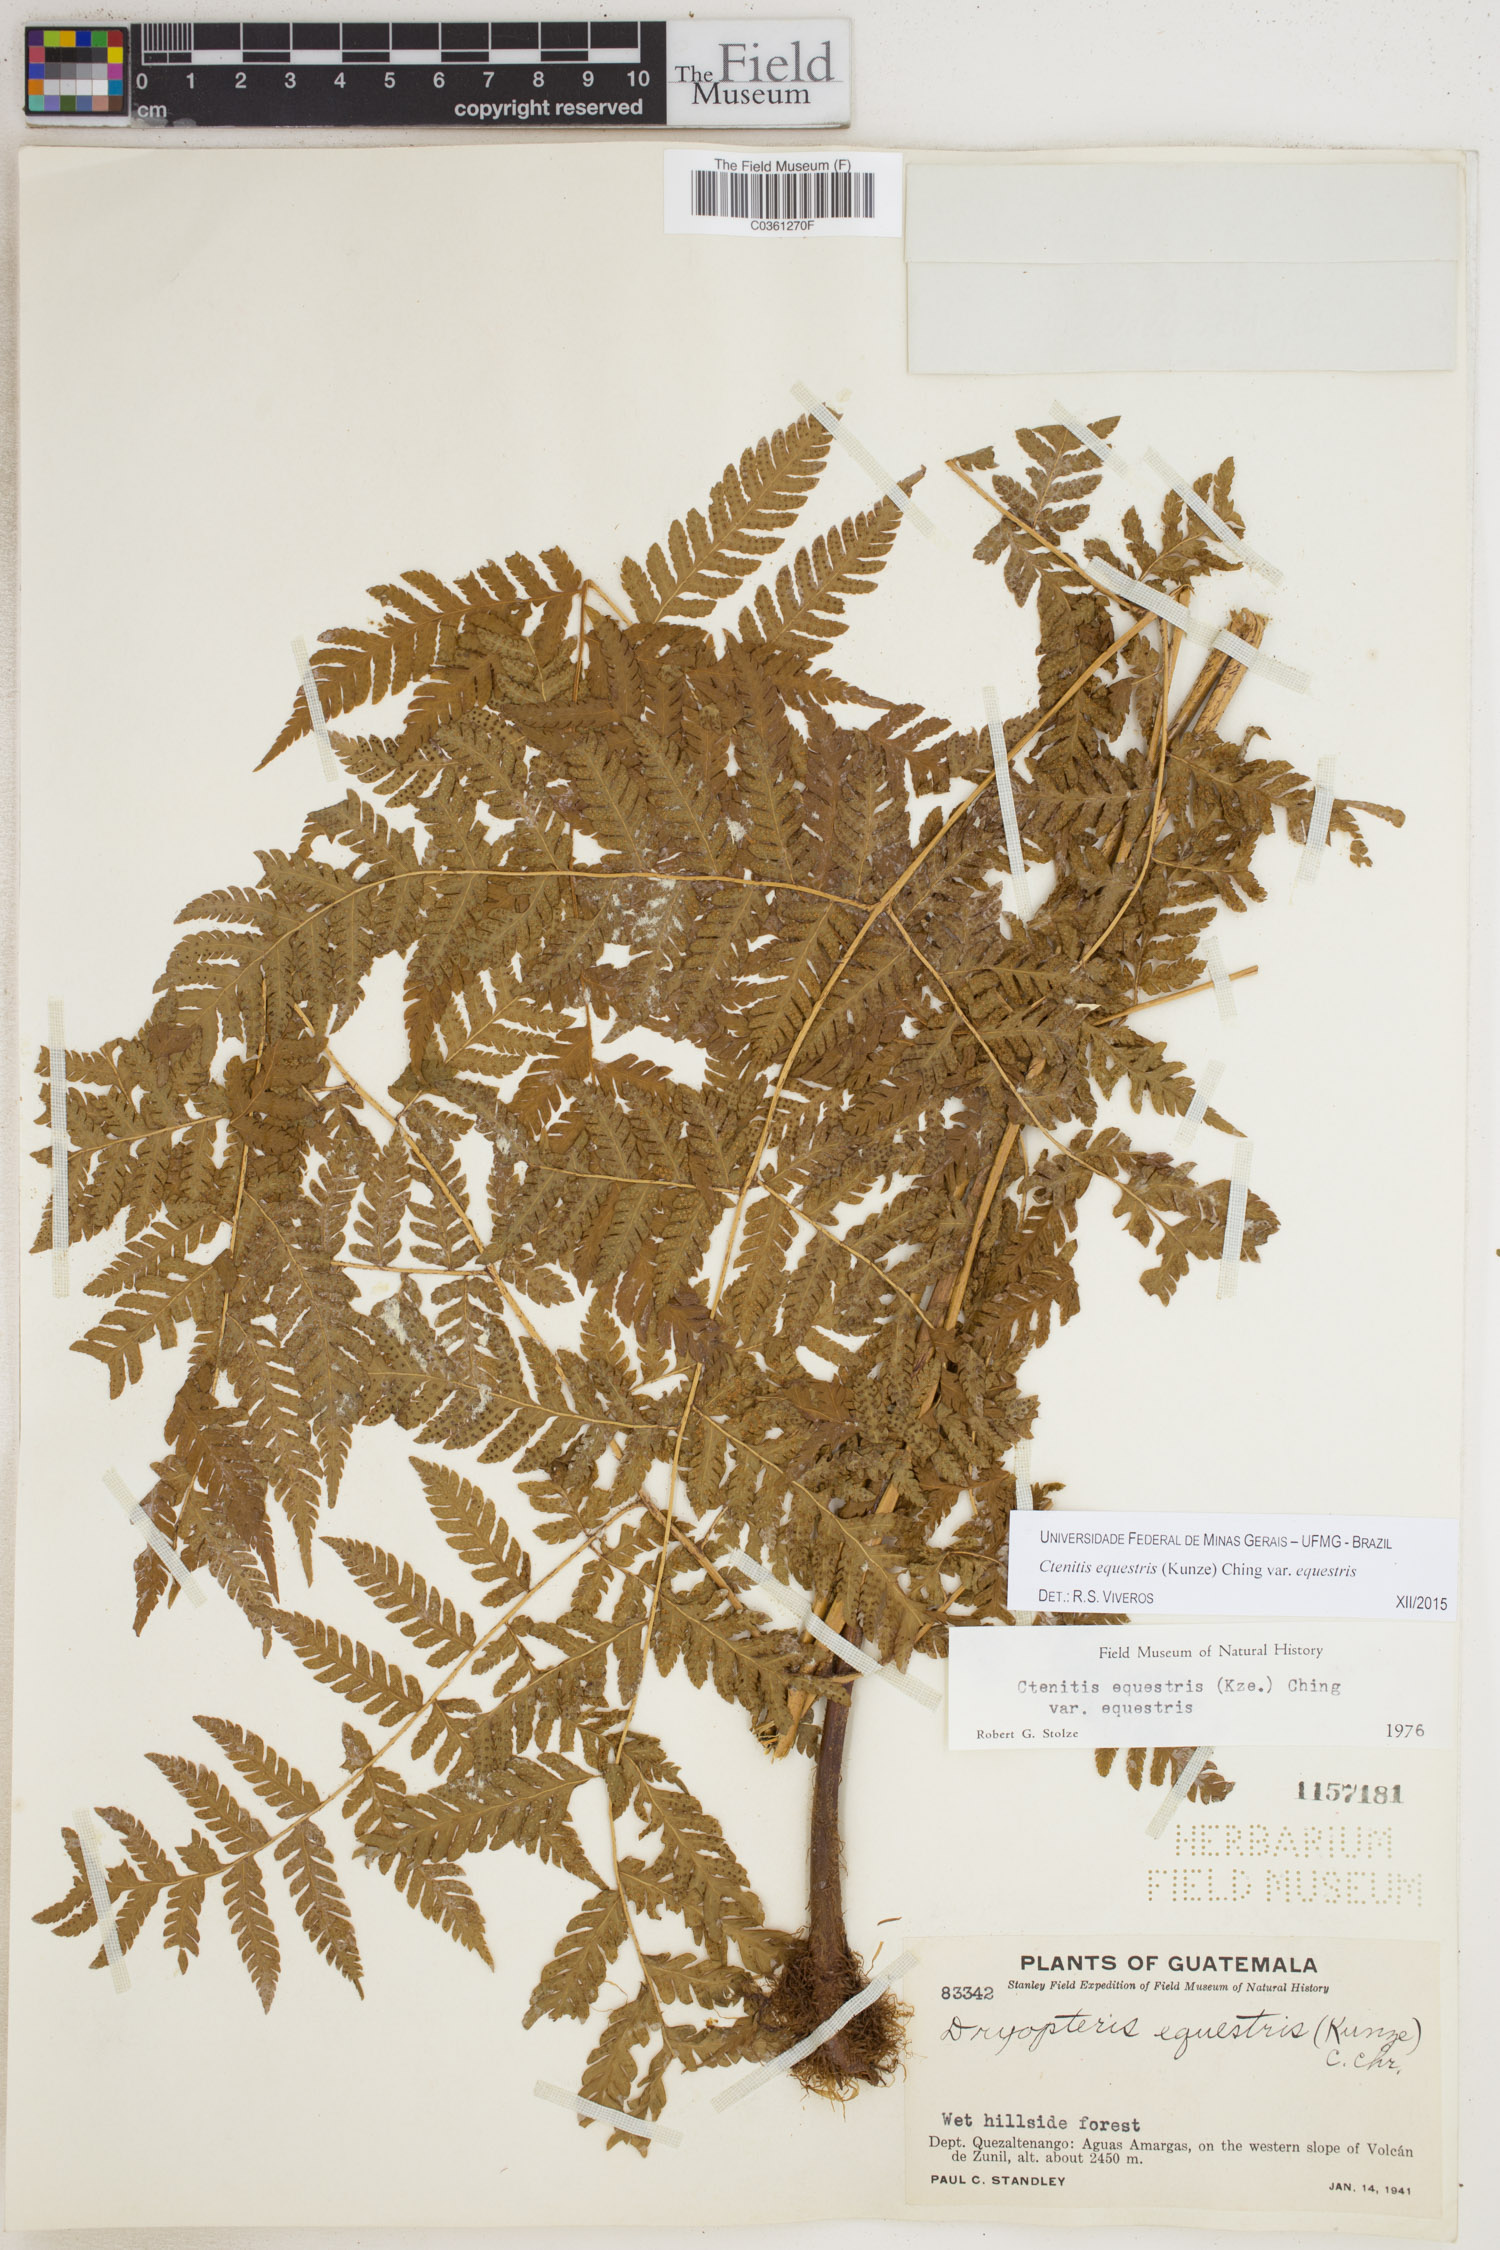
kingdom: Plantae
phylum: Tracheophyta
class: Polypodiopsida
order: Polypodiales
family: Dryopteridaceae
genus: Ctenitis
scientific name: Ctenitis equestris
